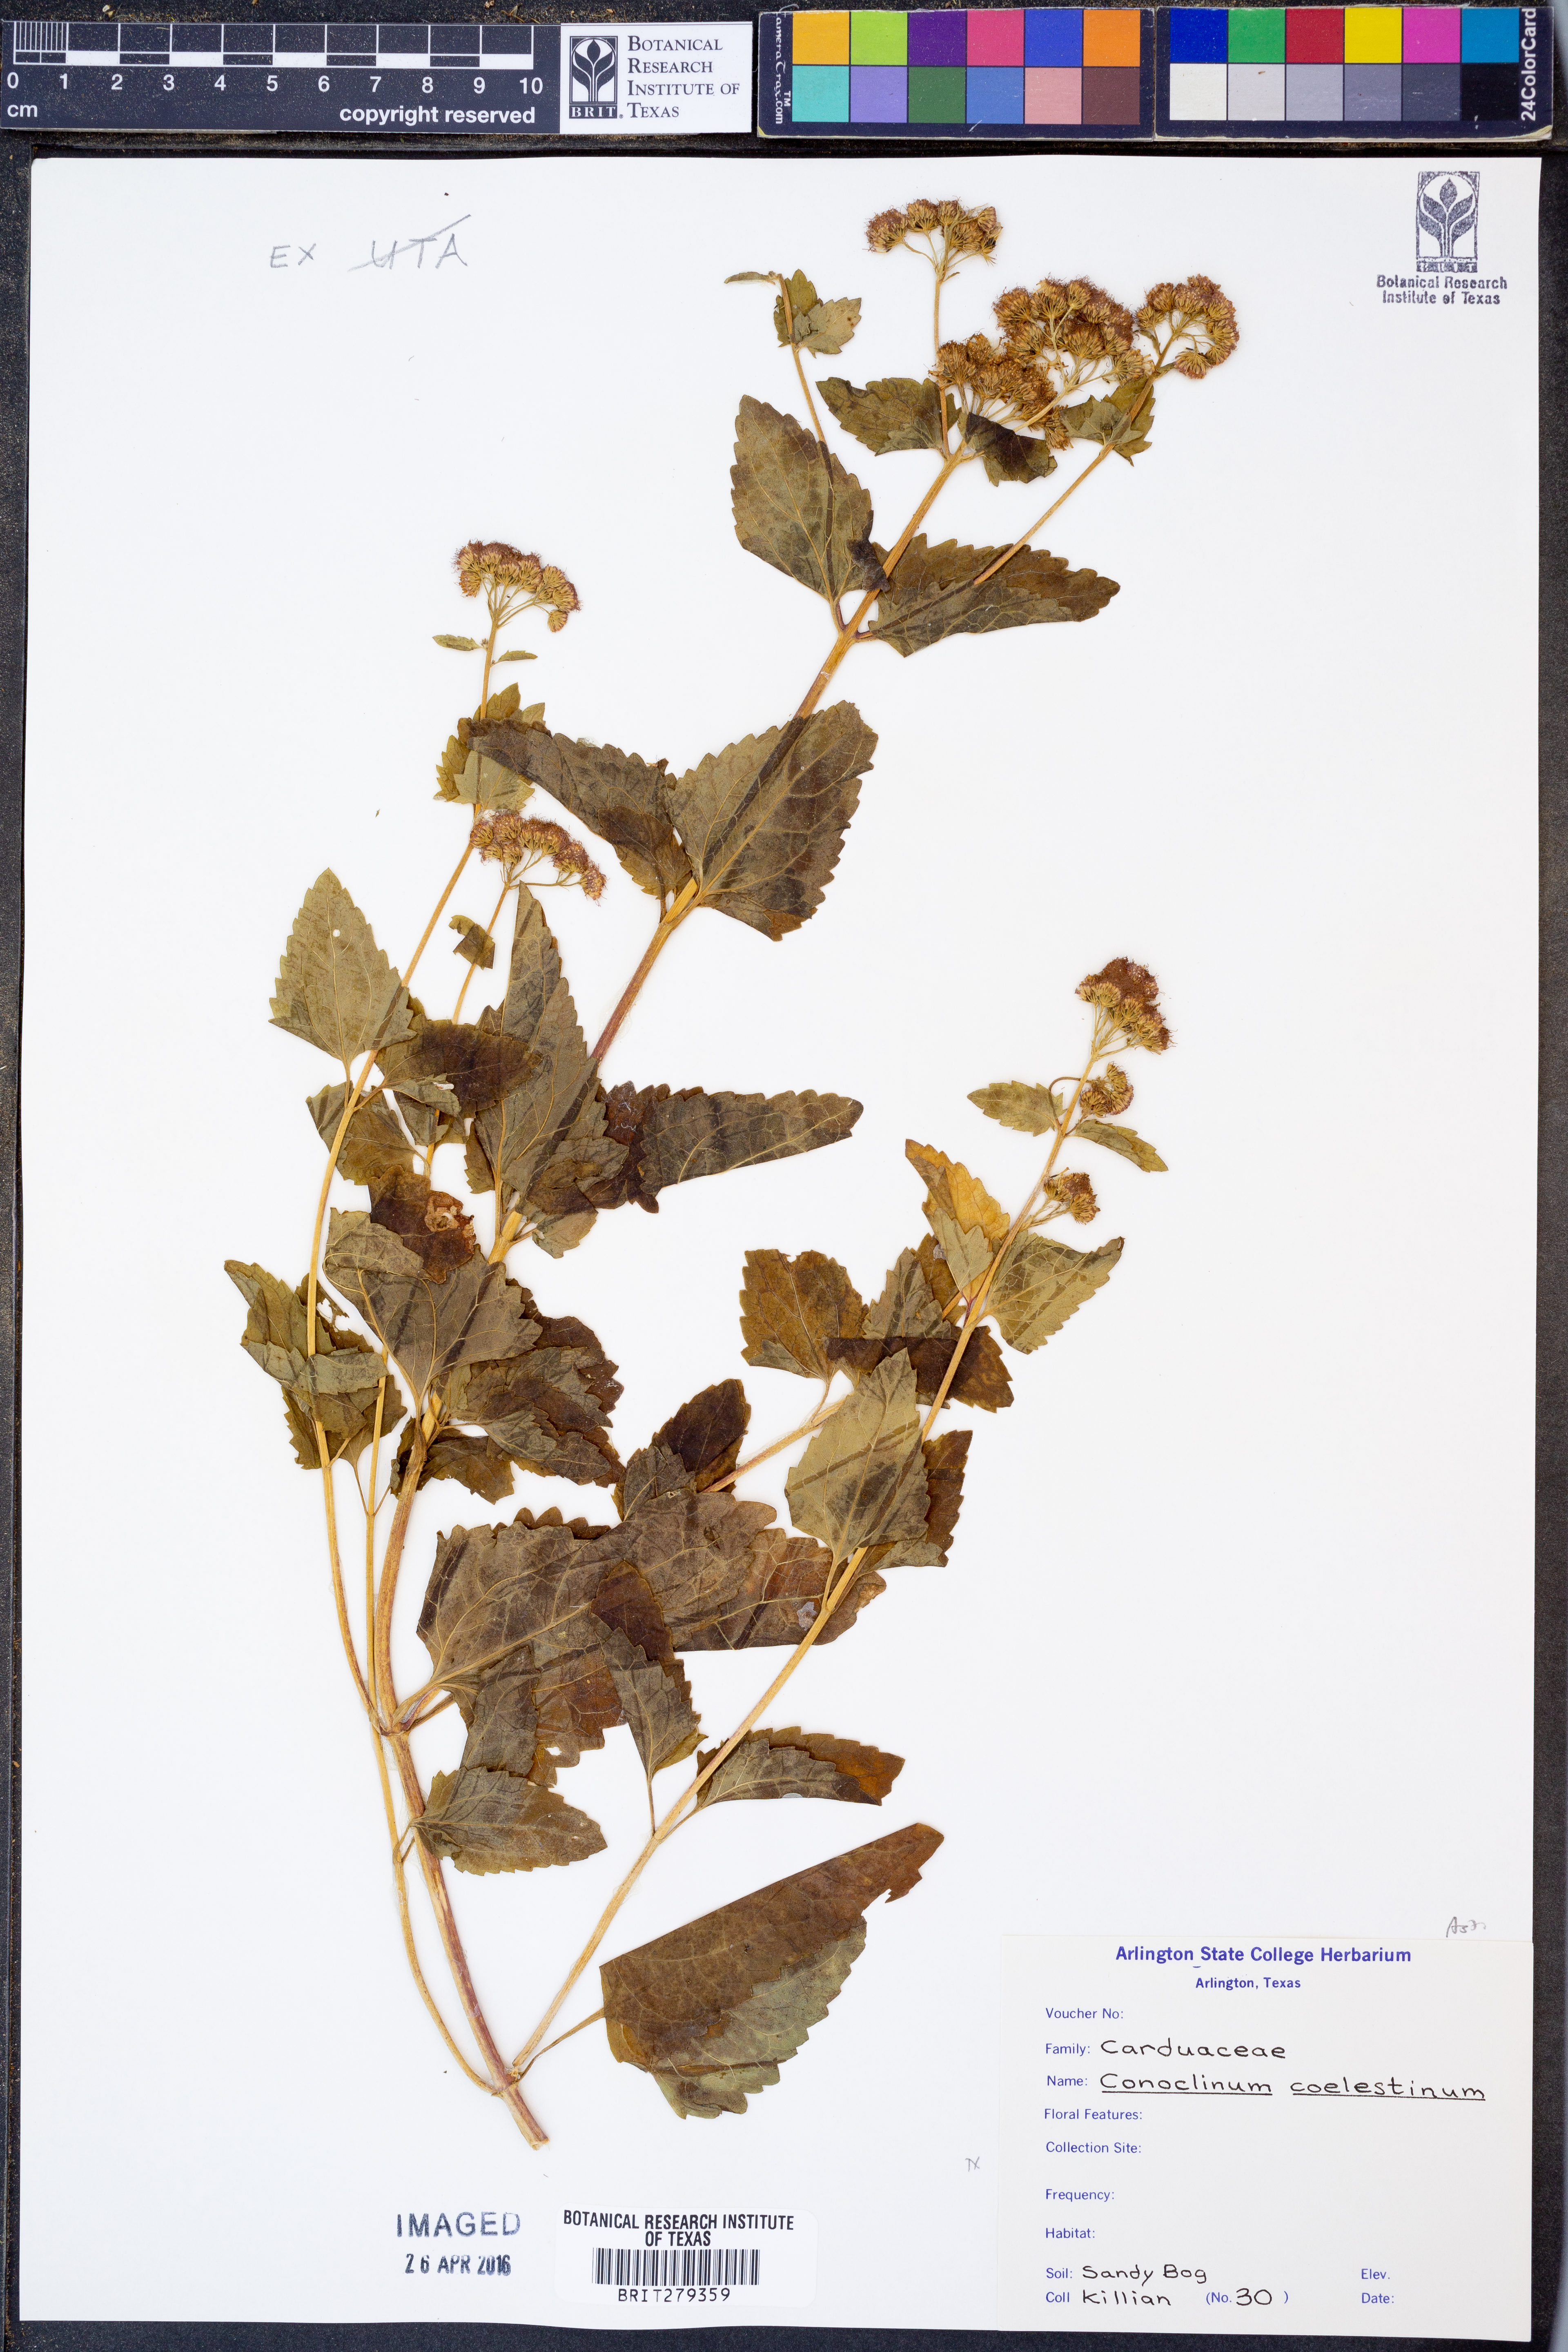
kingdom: Plantae
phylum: Tracheophyta
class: Magnoliopsida
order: Asterales
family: Asteraceae
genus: Conoclinium
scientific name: Conoclinium coelestinum
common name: Blue mistflower
